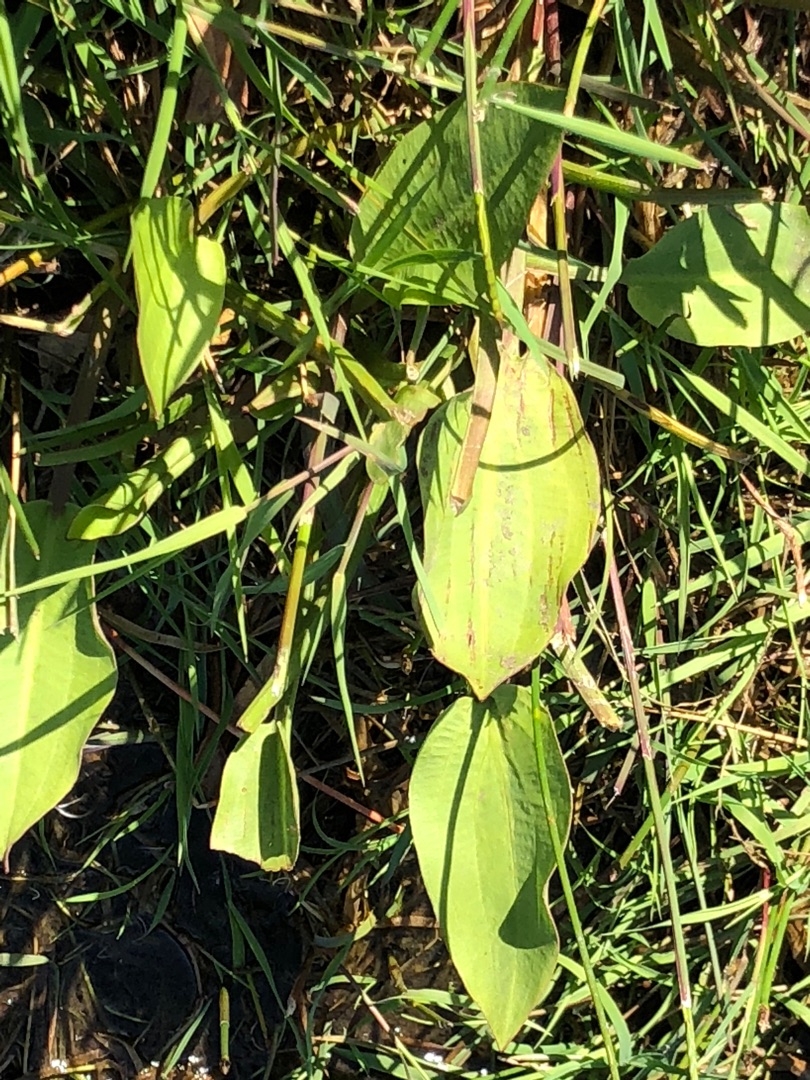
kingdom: Plantae
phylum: Tracheophyta
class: Liliopsida
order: Alismatales
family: Alismataceae
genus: Alisma
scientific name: Alisma plantago-aquatica
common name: Vejbred-skeblad
